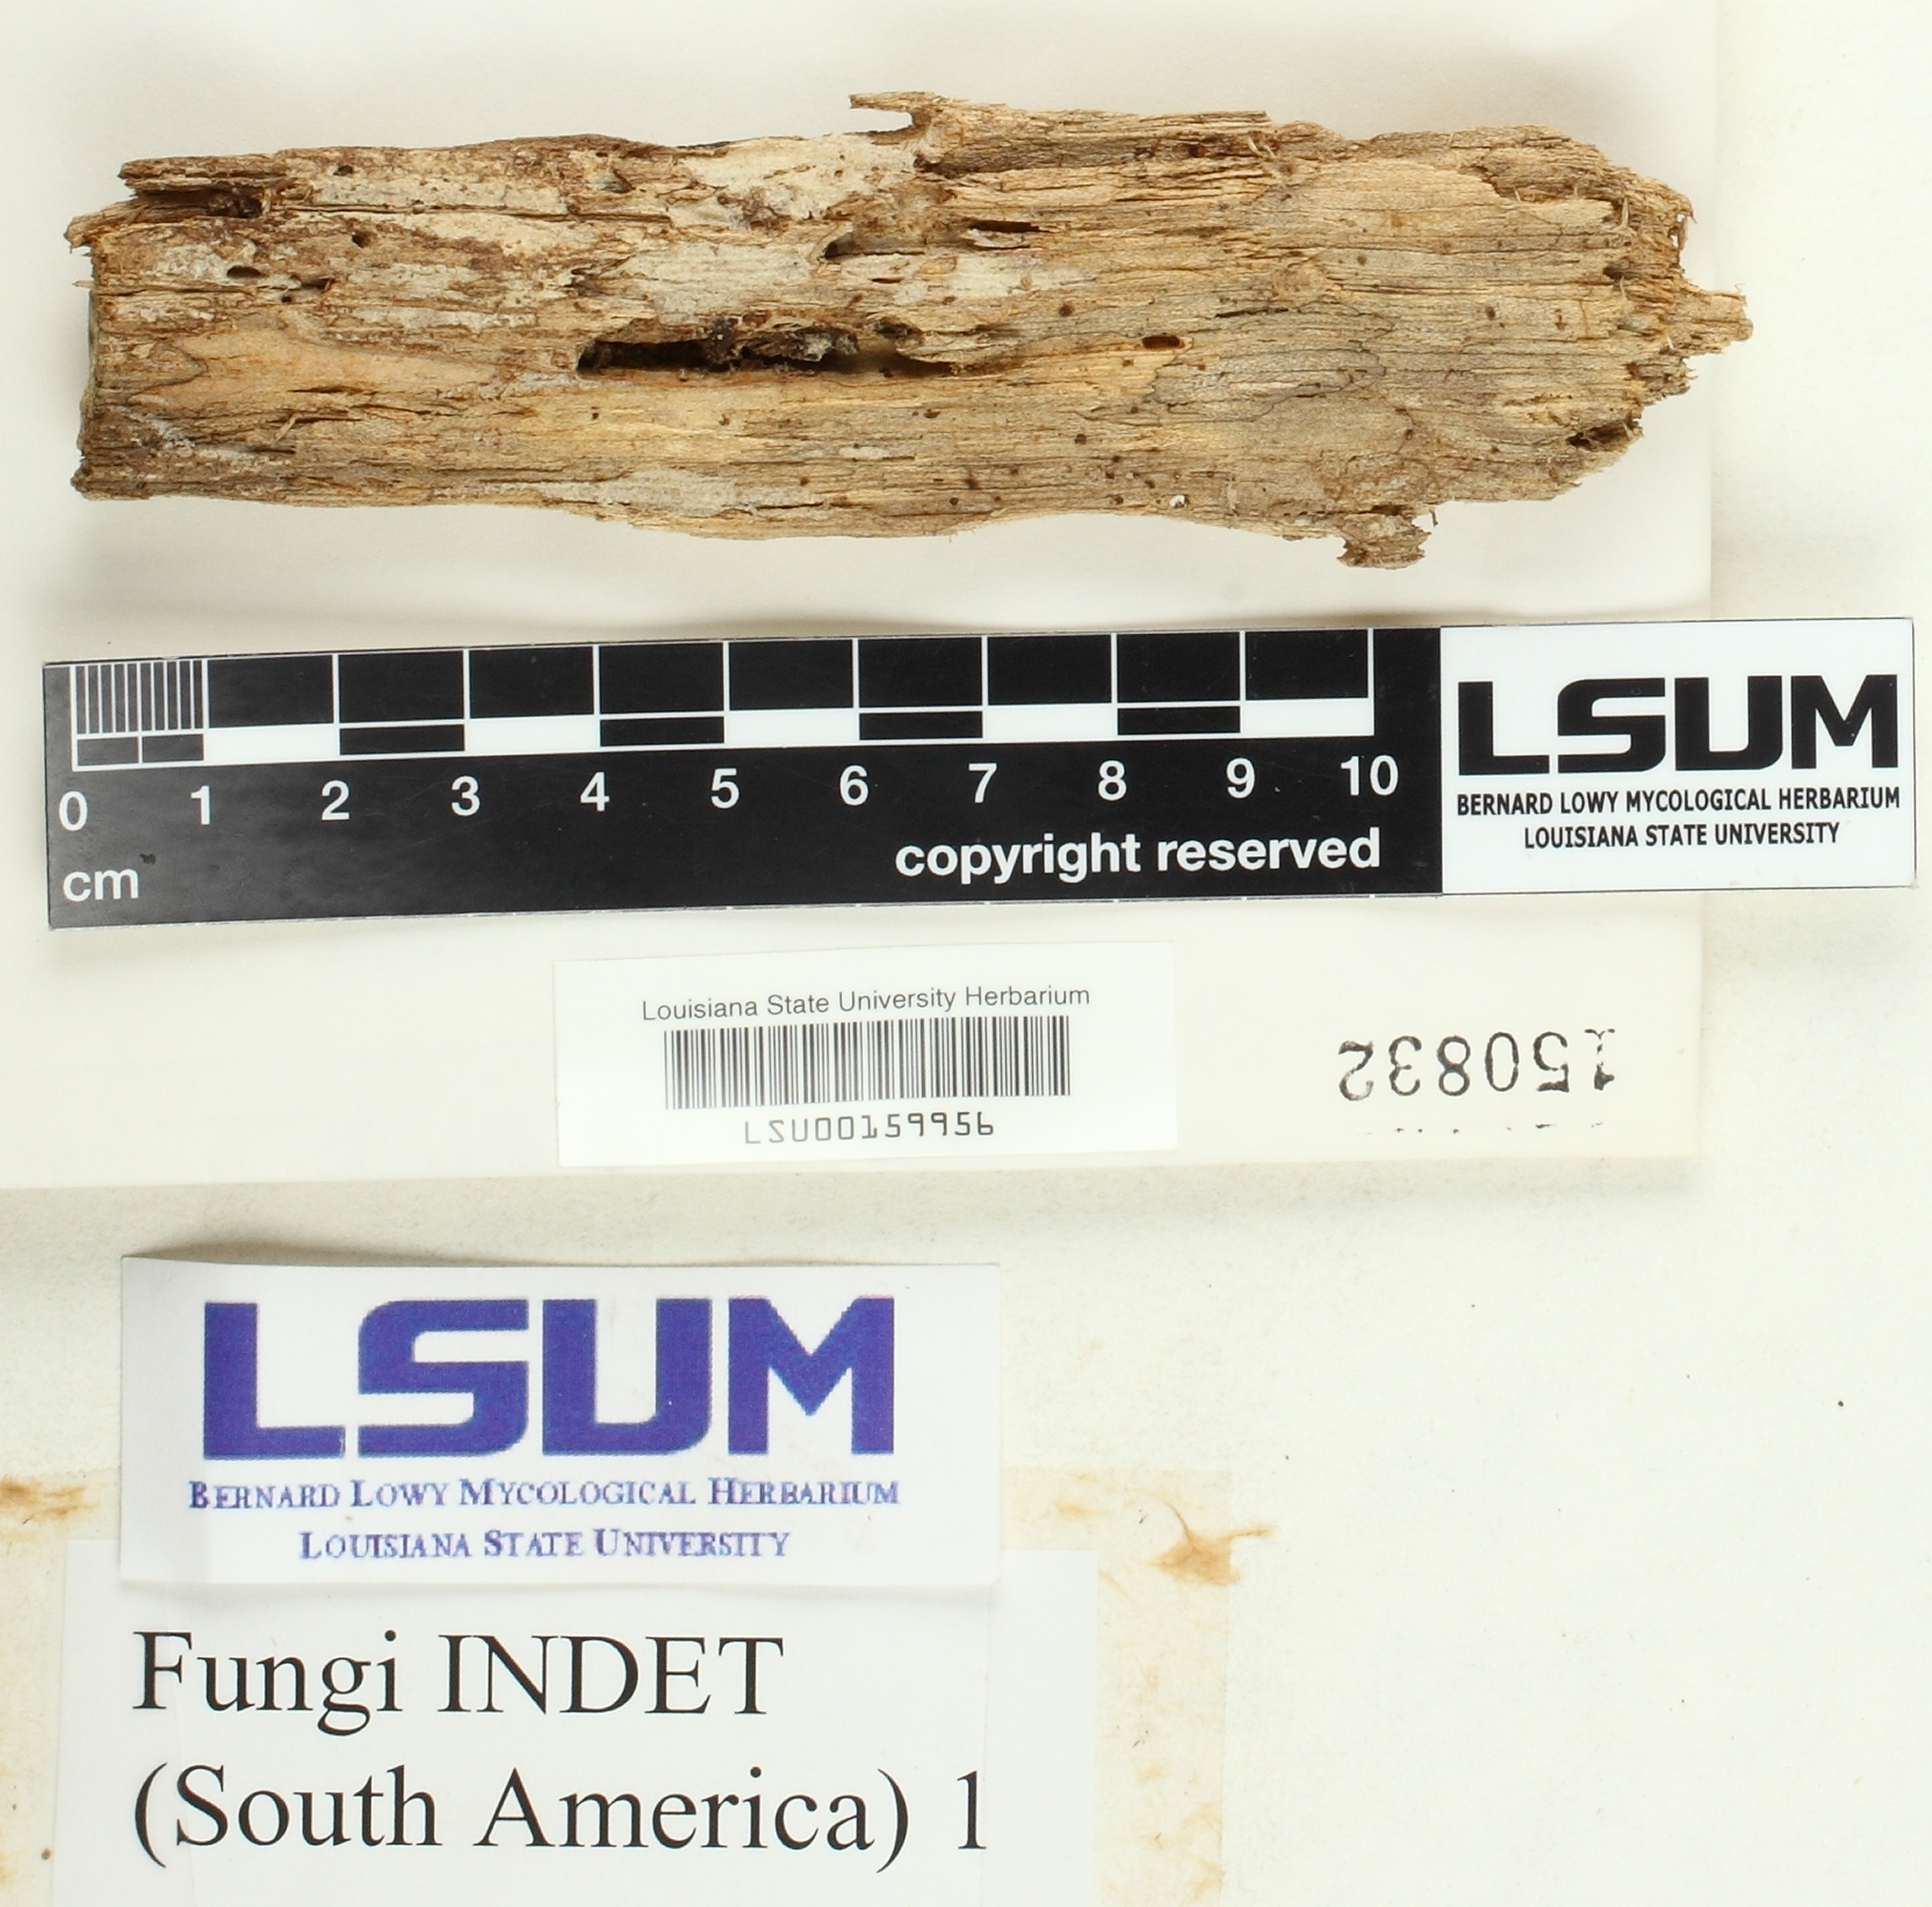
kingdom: Fungi
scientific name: Fungi
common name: Fungi
